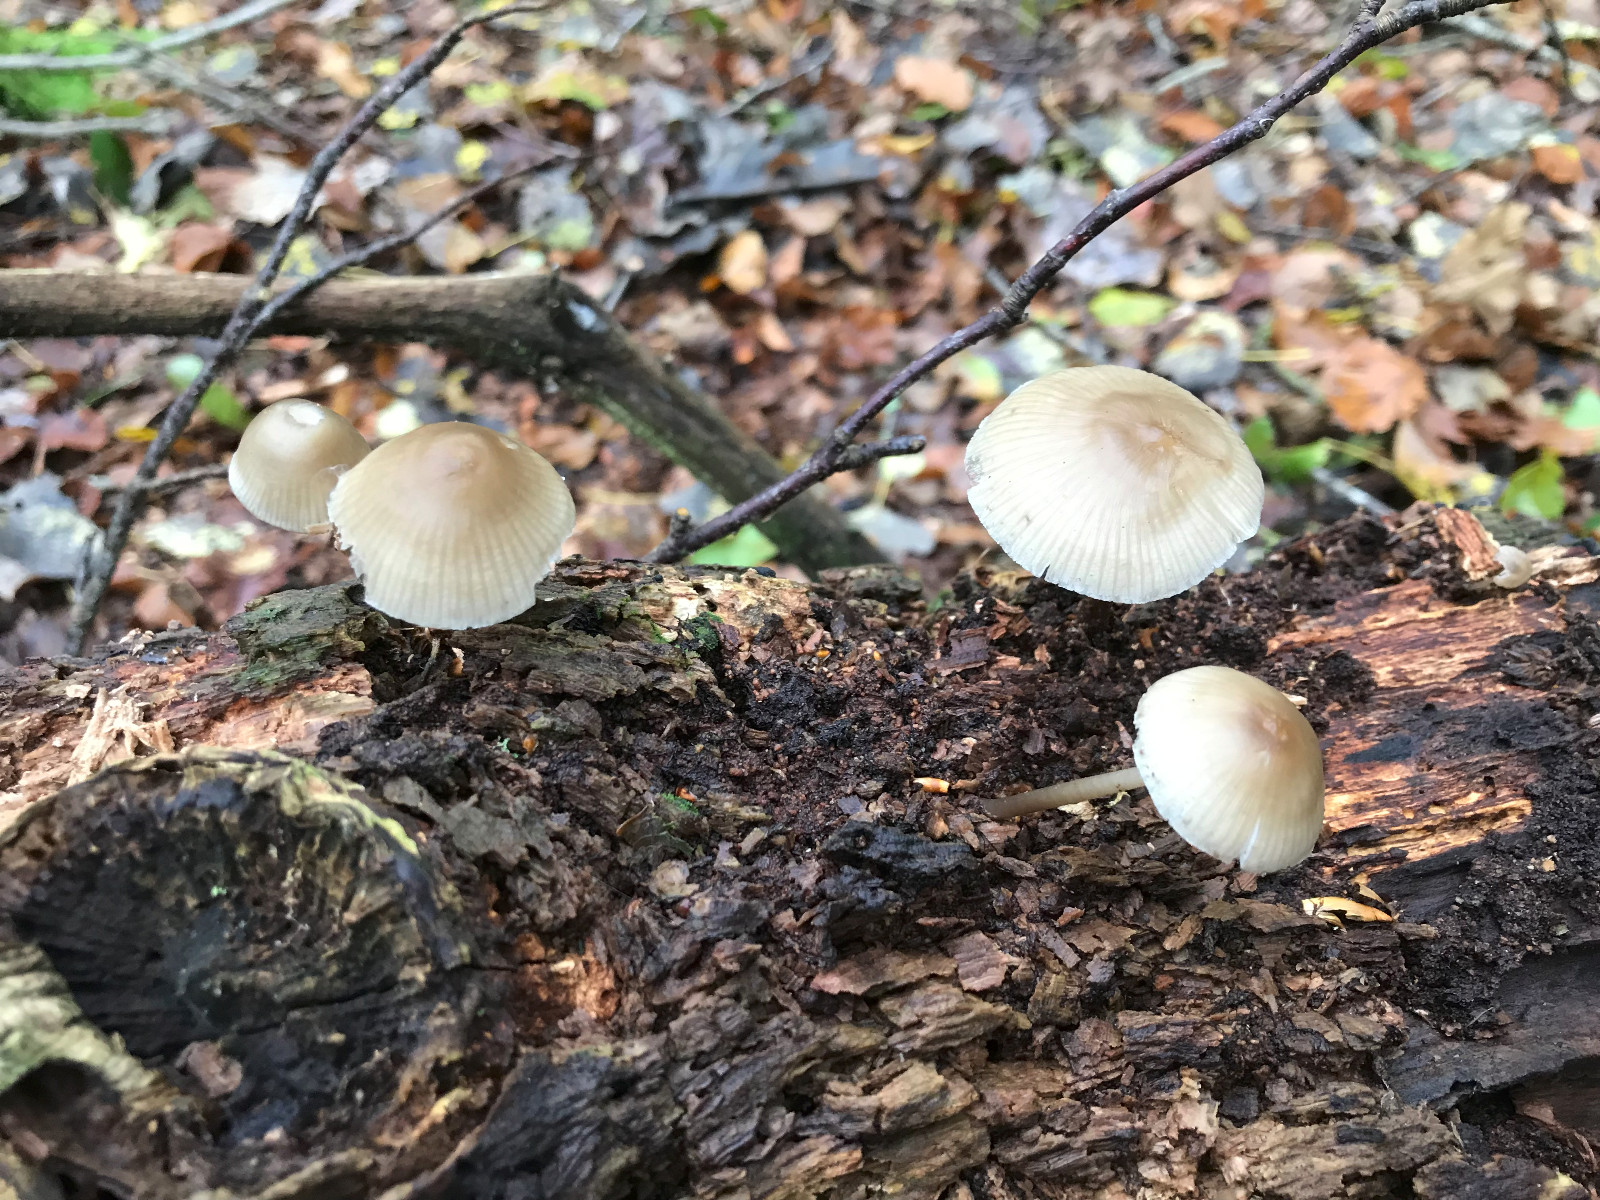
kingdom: Fungi
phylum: Basidiomycota
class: Agaricomycetes
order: Agaricales
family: Mycenaceae
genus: Mycena
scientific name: Mycena galericulata
